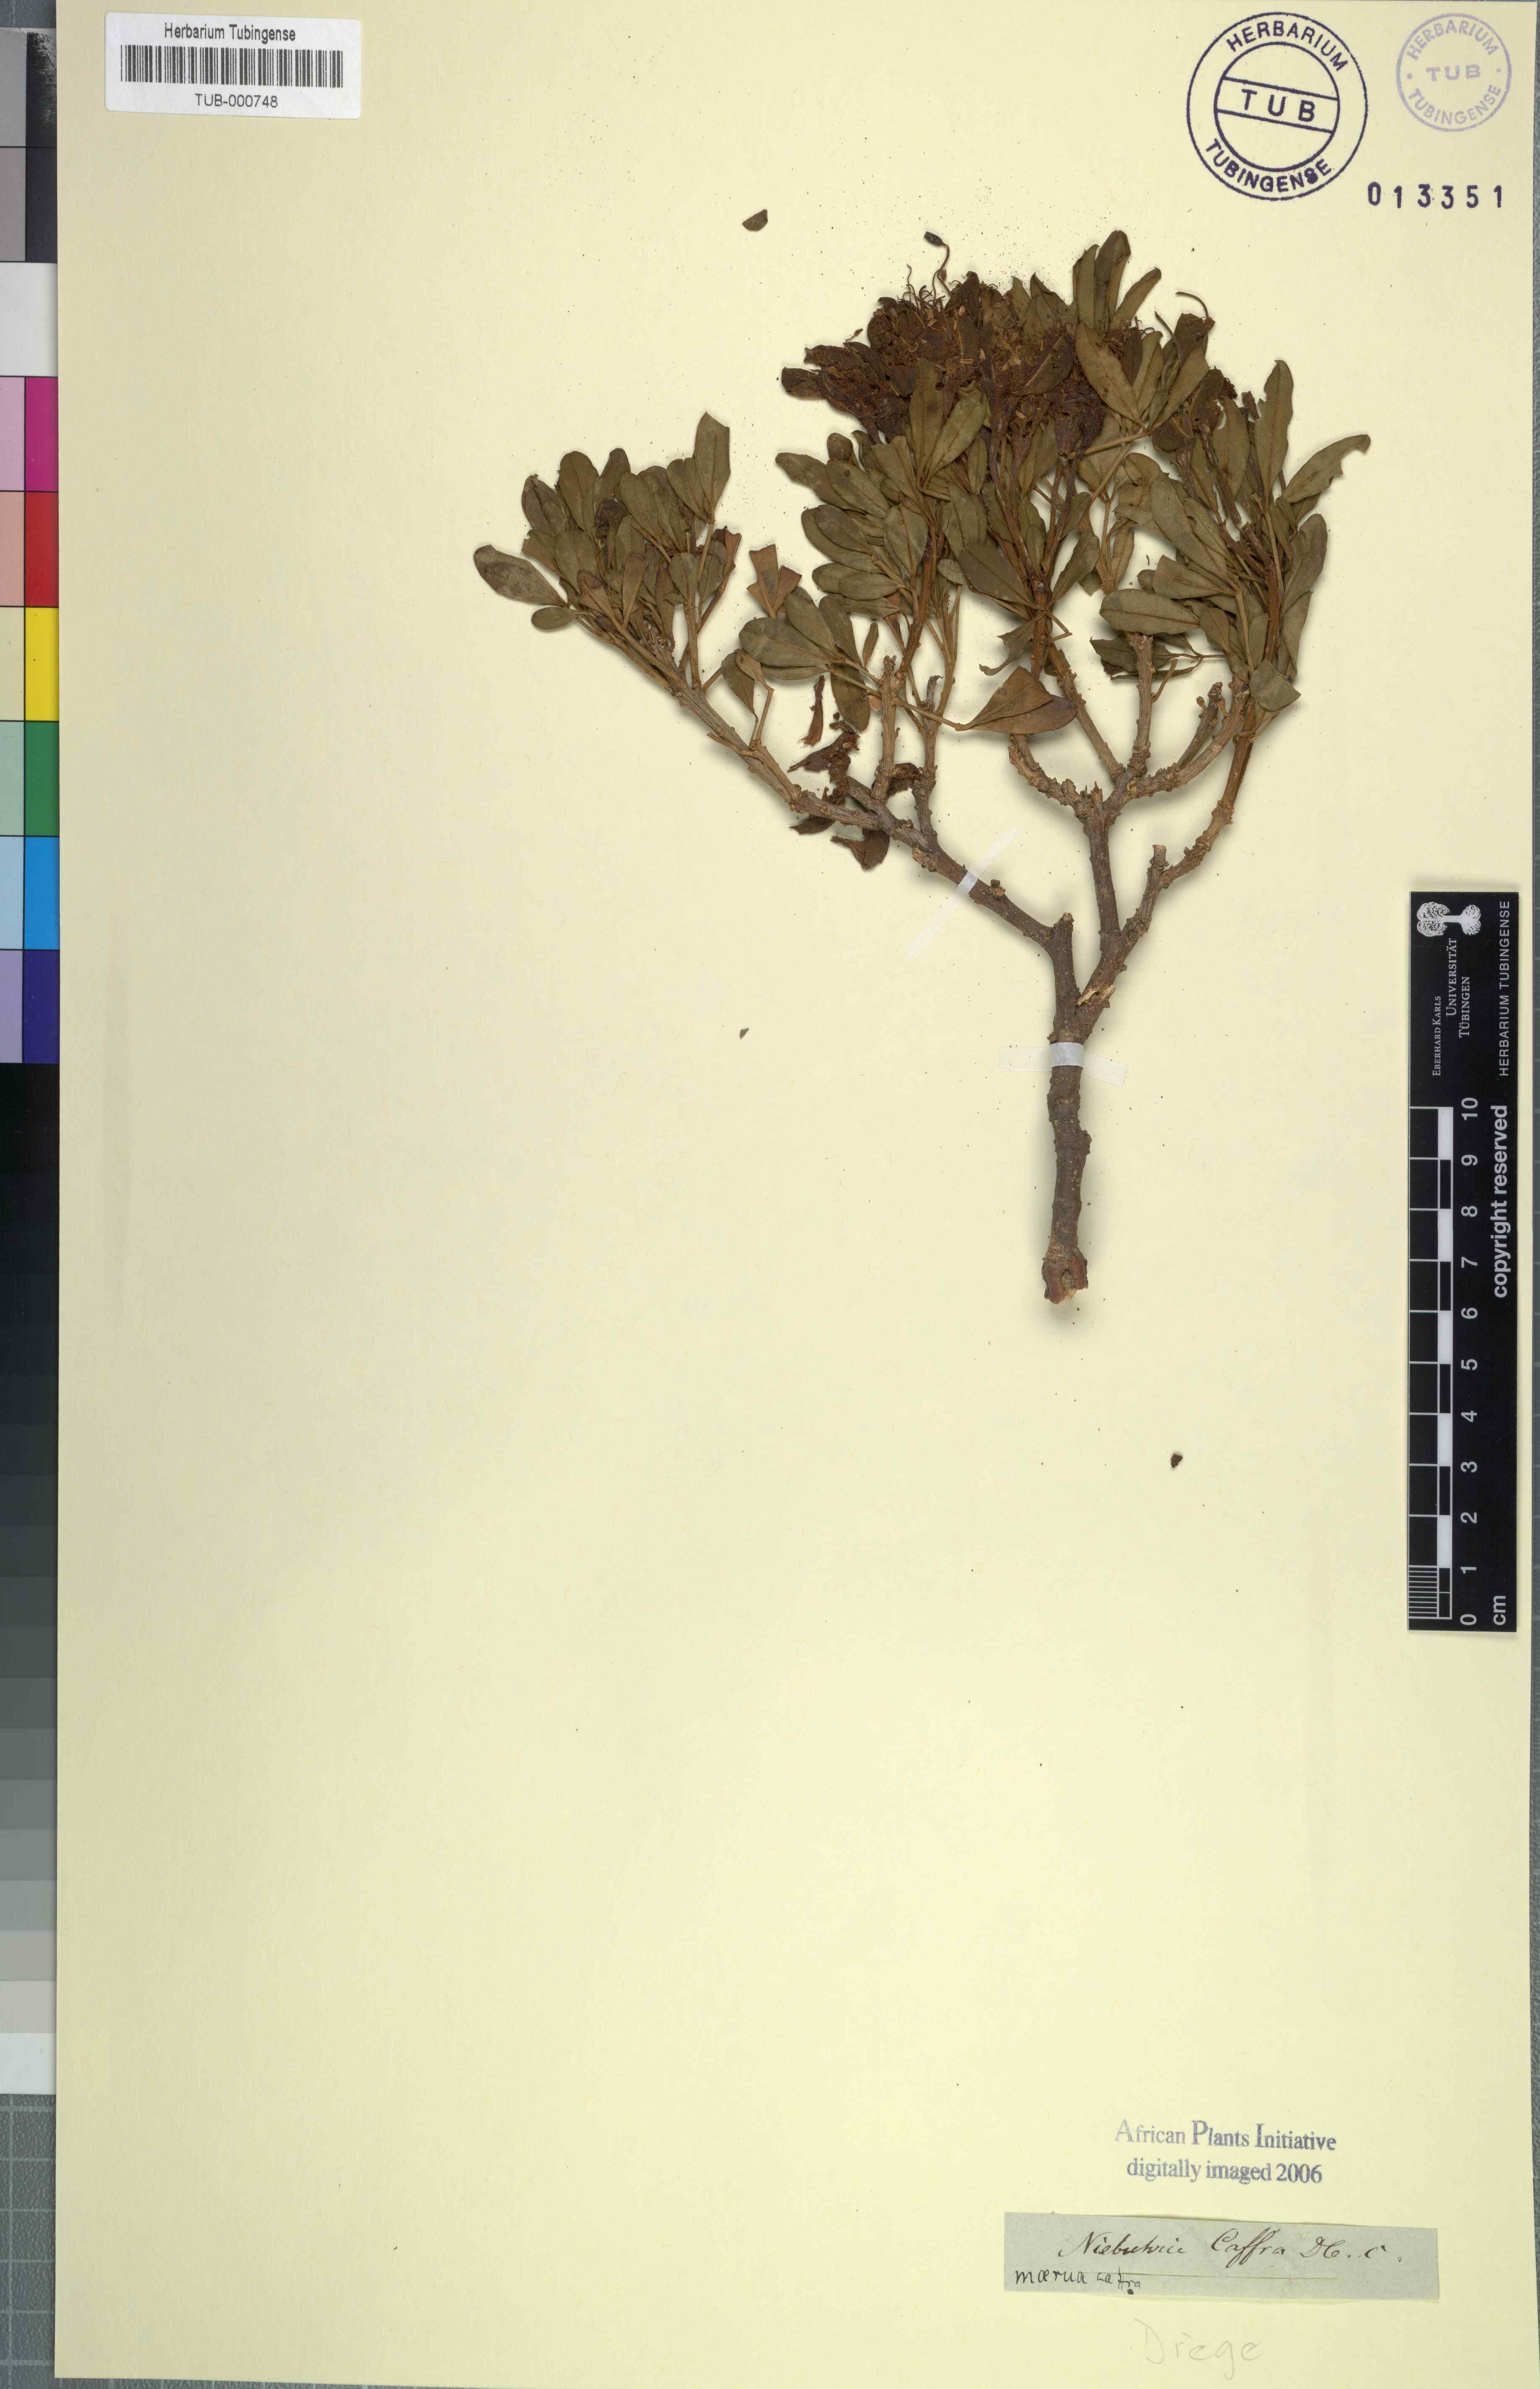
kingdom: Plantae
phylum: Tracheophyta
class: Magnoliopsida
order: Brassicales
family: Capparaceae
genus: Maerua
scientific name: Maerua cafra
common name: Bush maerua
